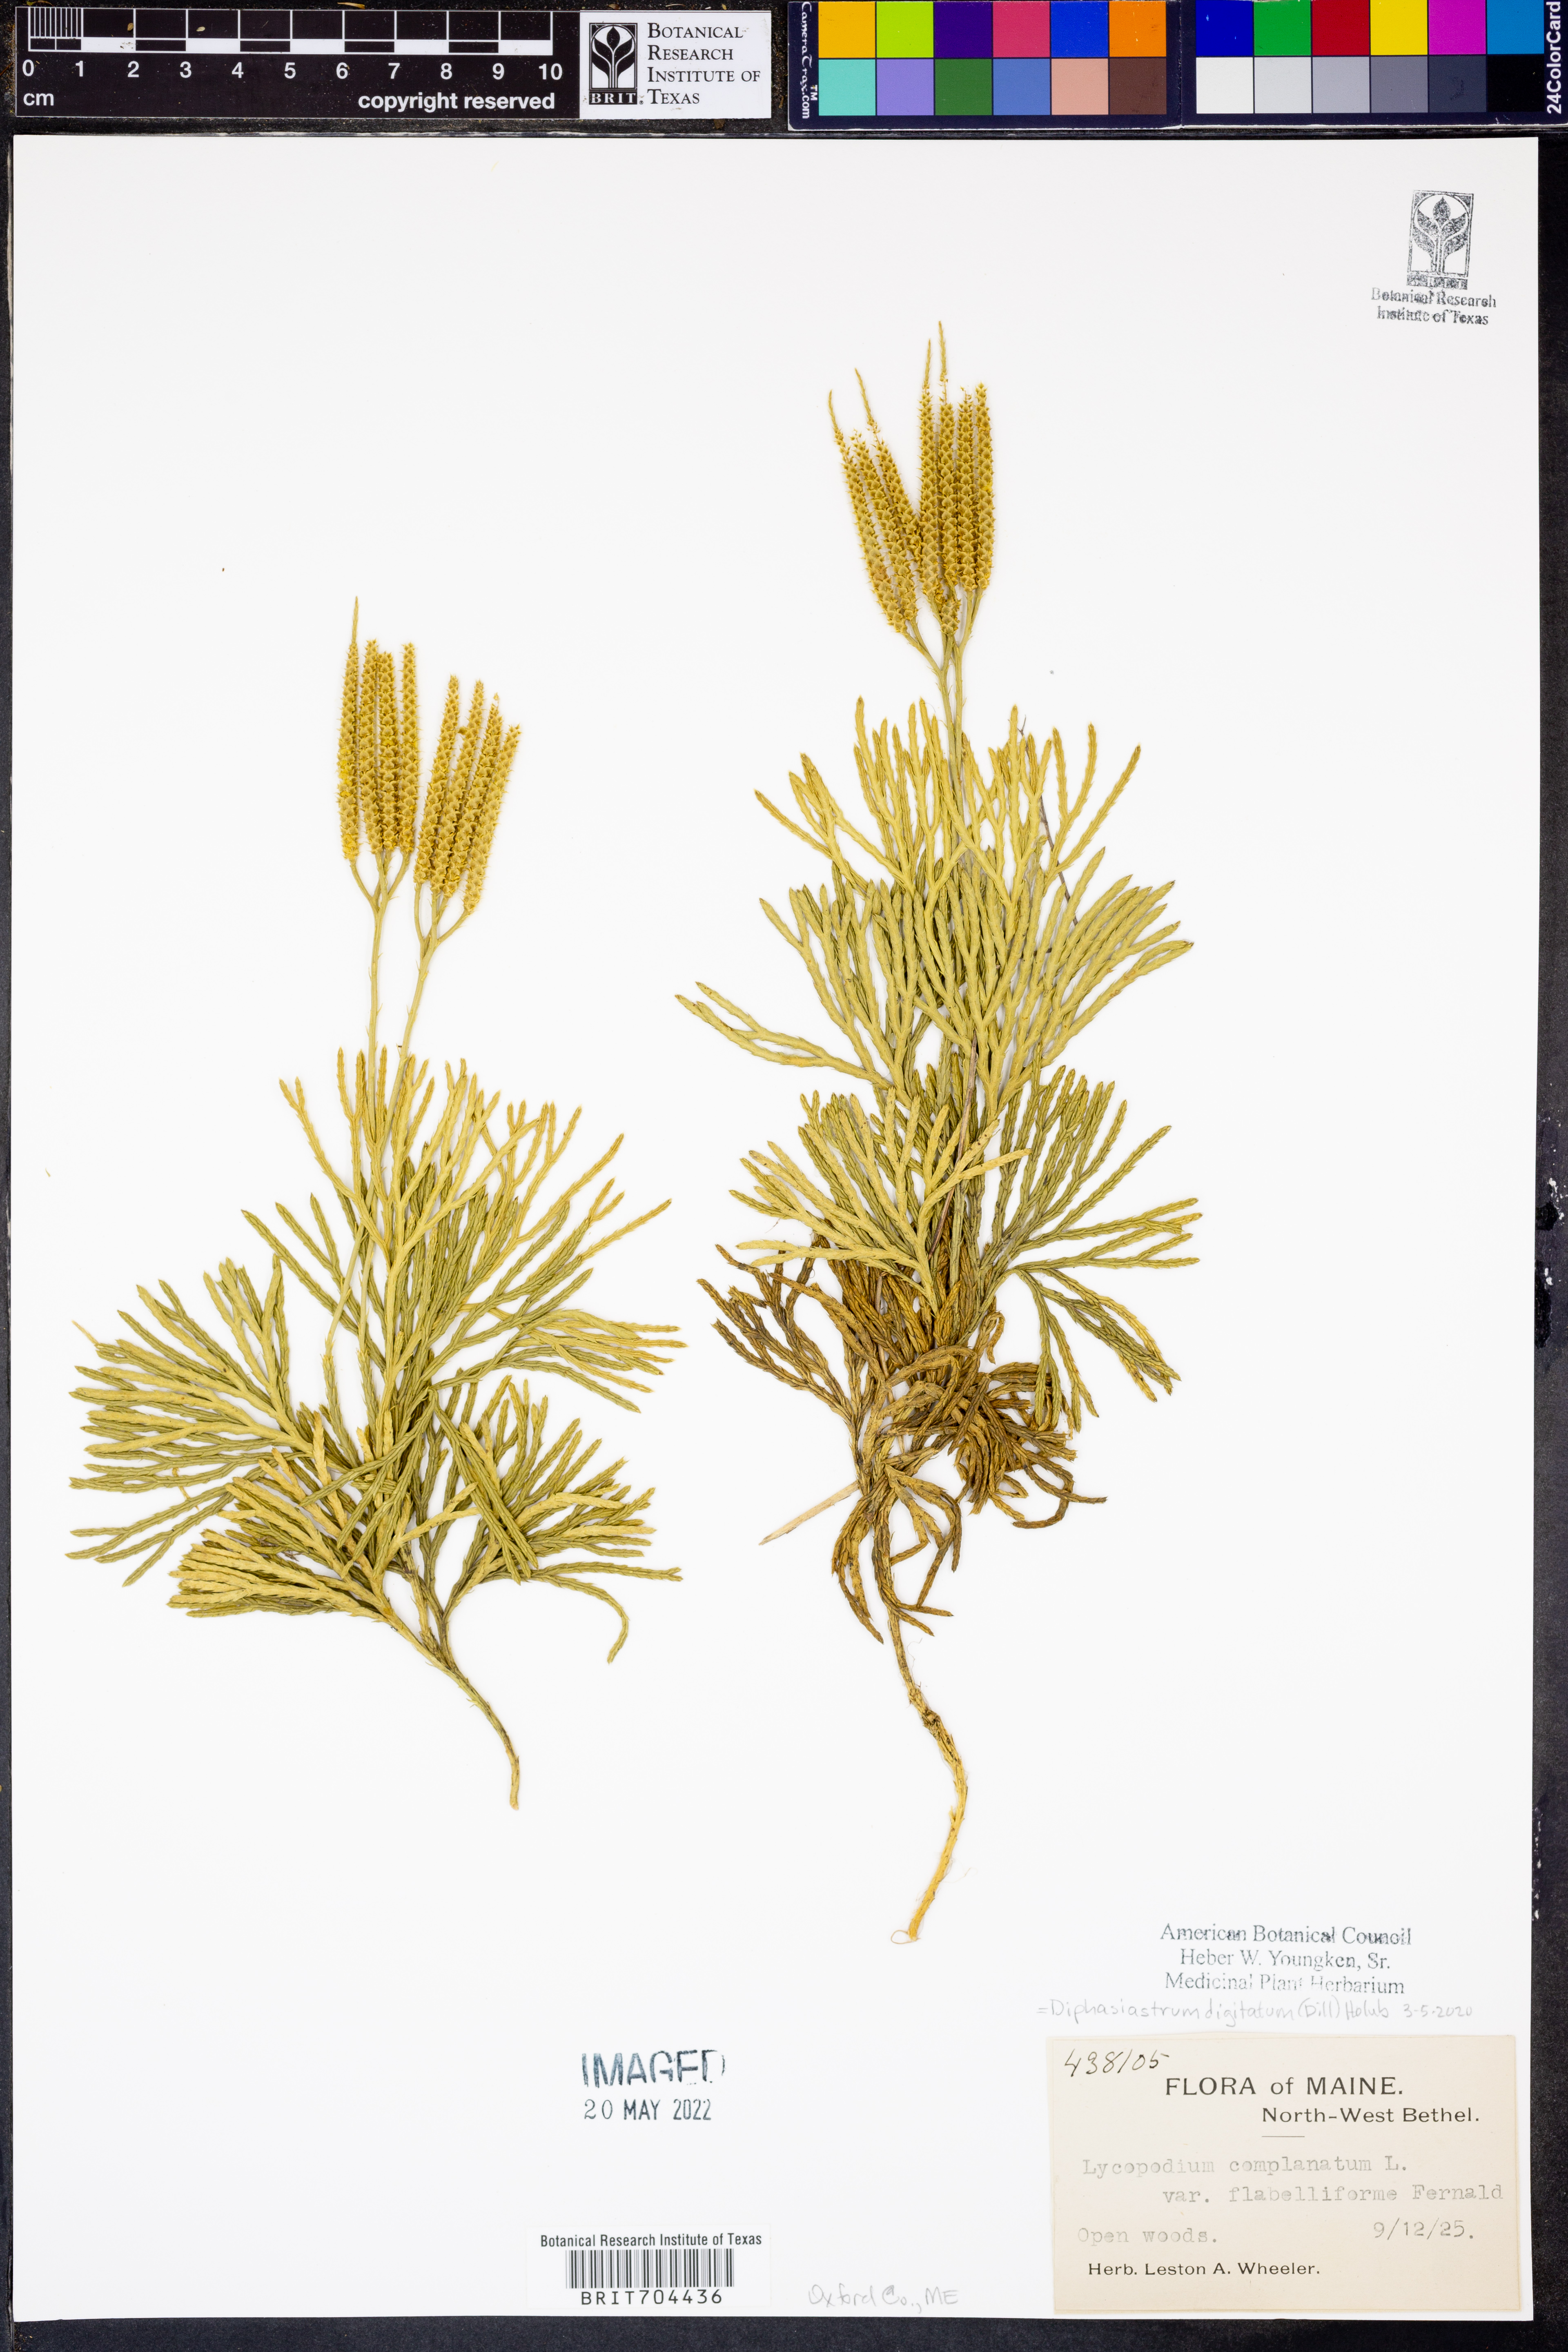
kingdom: Plantae
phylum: Tracheophyta
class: Lycopodiopsida
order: Lycopodiales
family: Lycopodiaceae
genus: Diphasiastrum
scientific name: Diphasiastrum digitatum
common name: Southern running-pine
